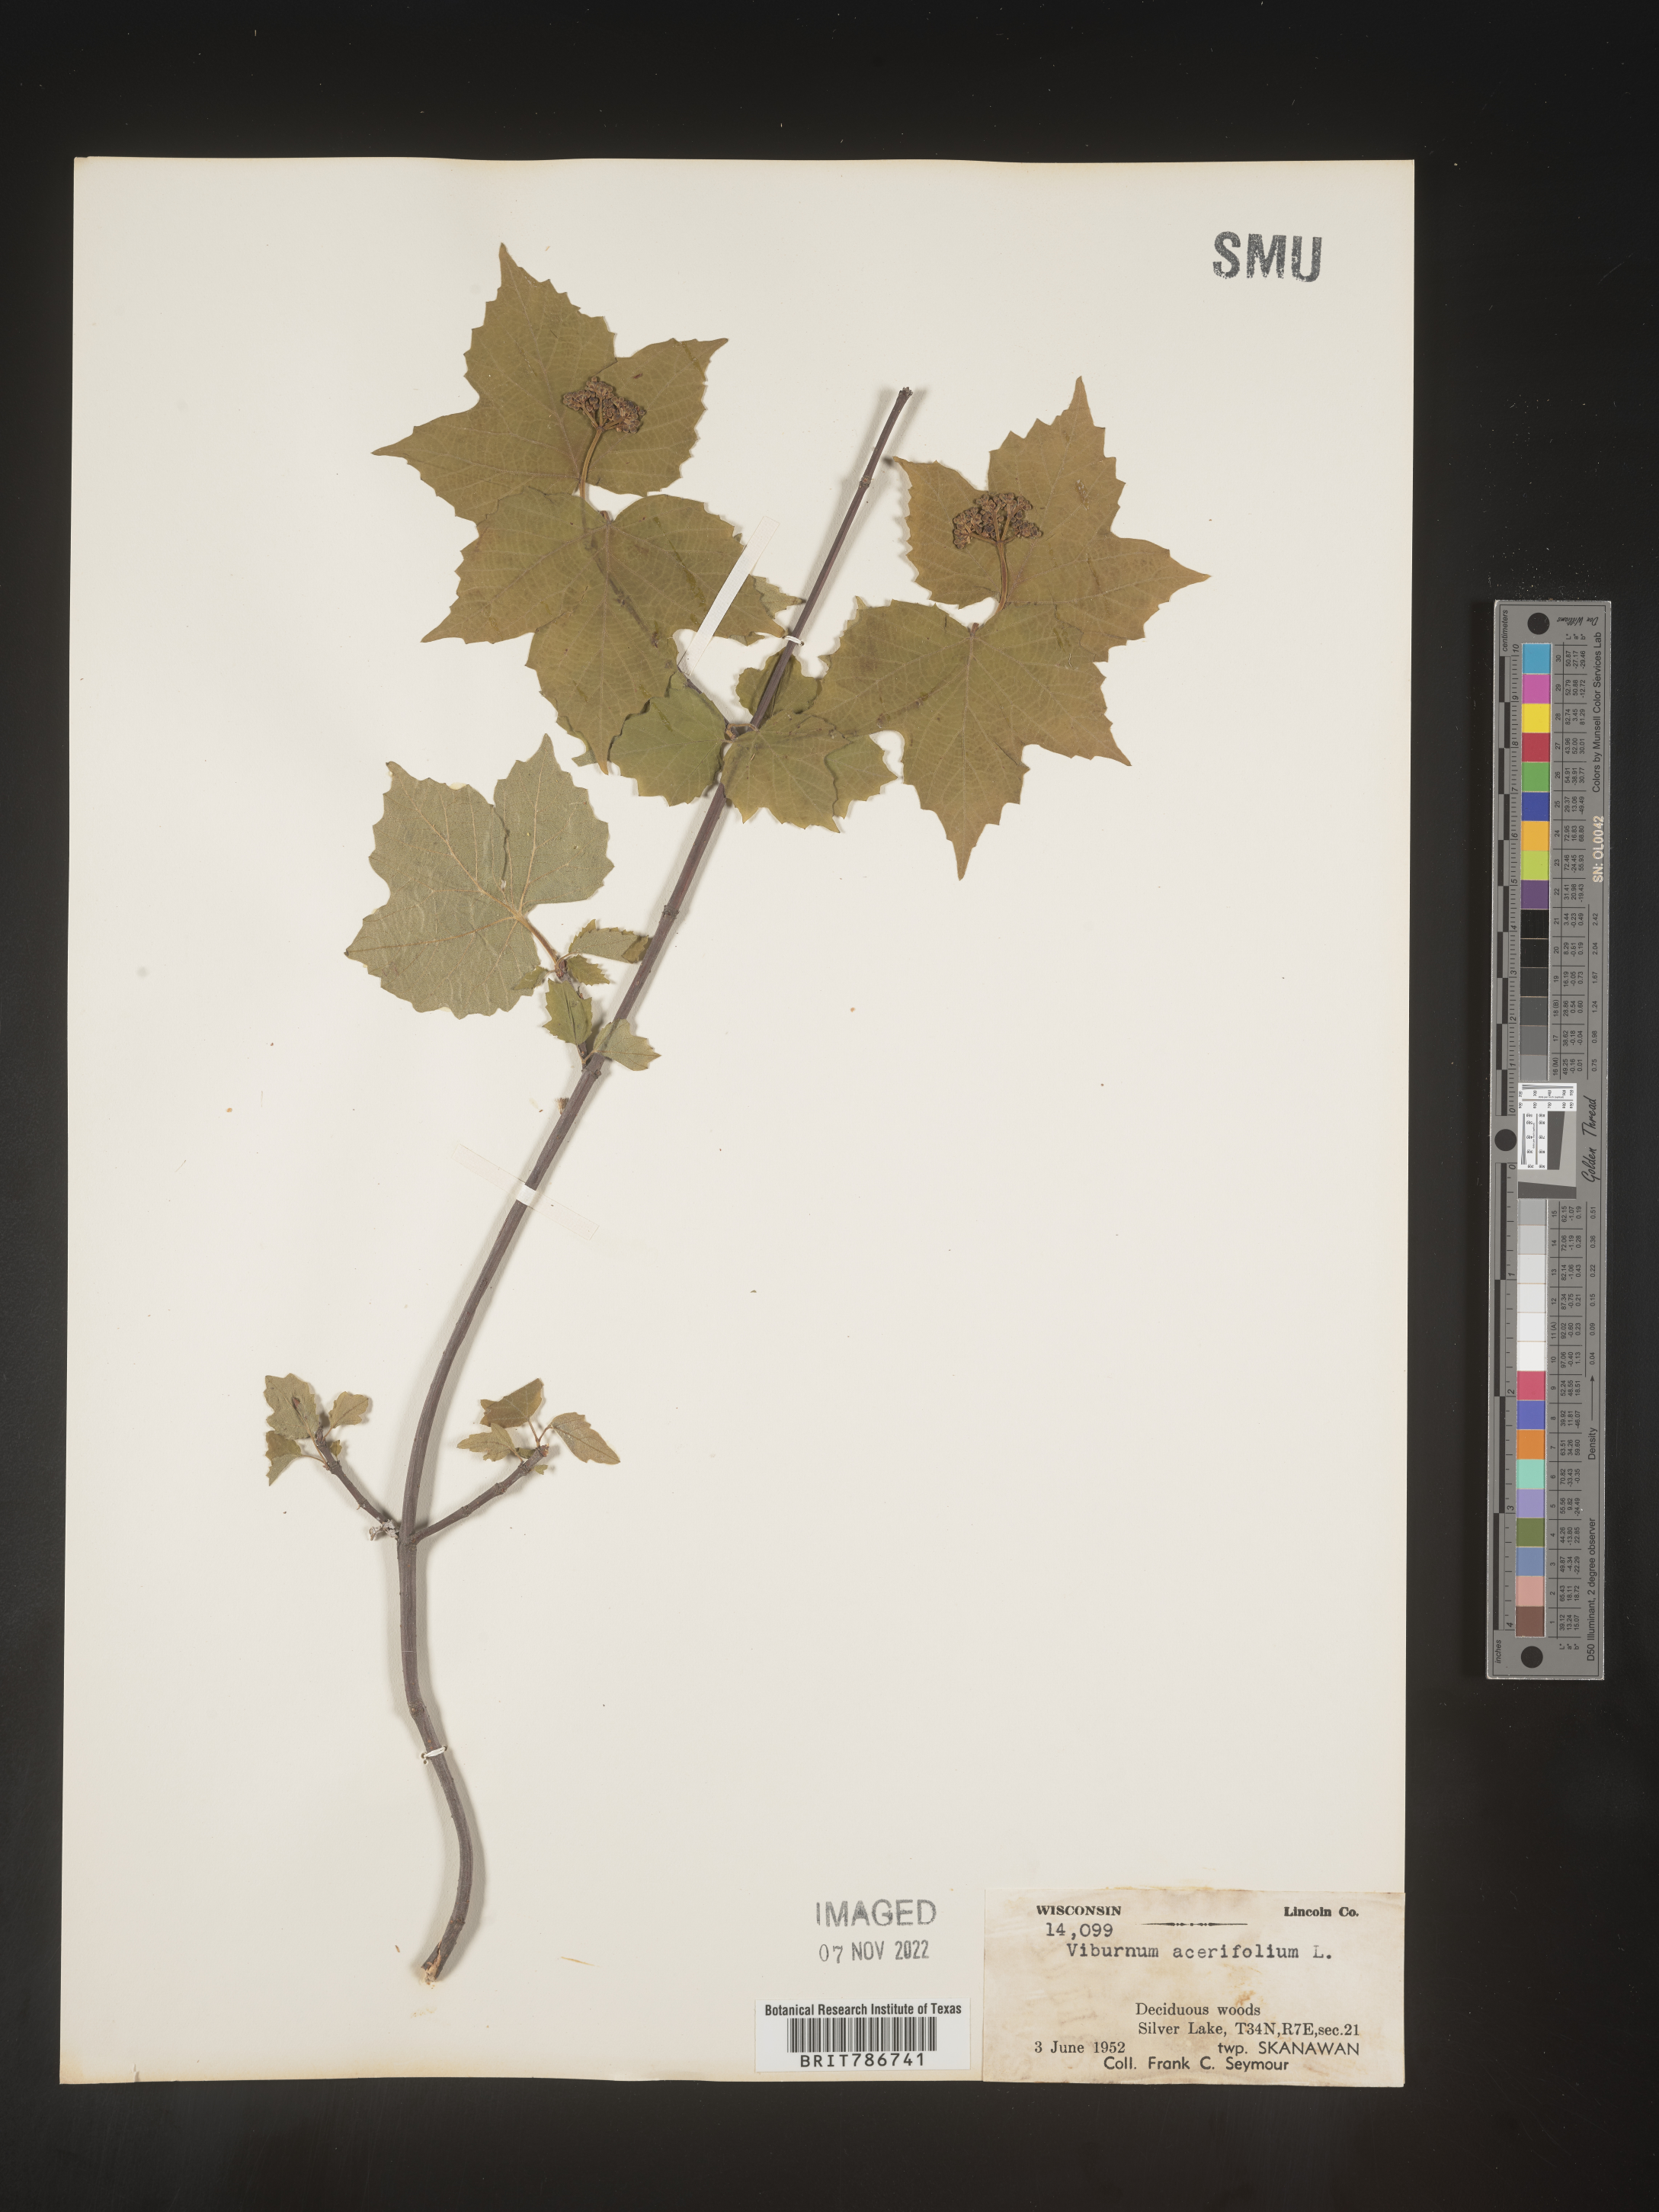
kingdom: Plantae
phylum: Tracheophyta
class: Magnoliopsida
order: Dipsacales
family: Viburnaceae
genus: Viburnum
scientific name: Viburnum acerifolium
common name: Dockmackie
